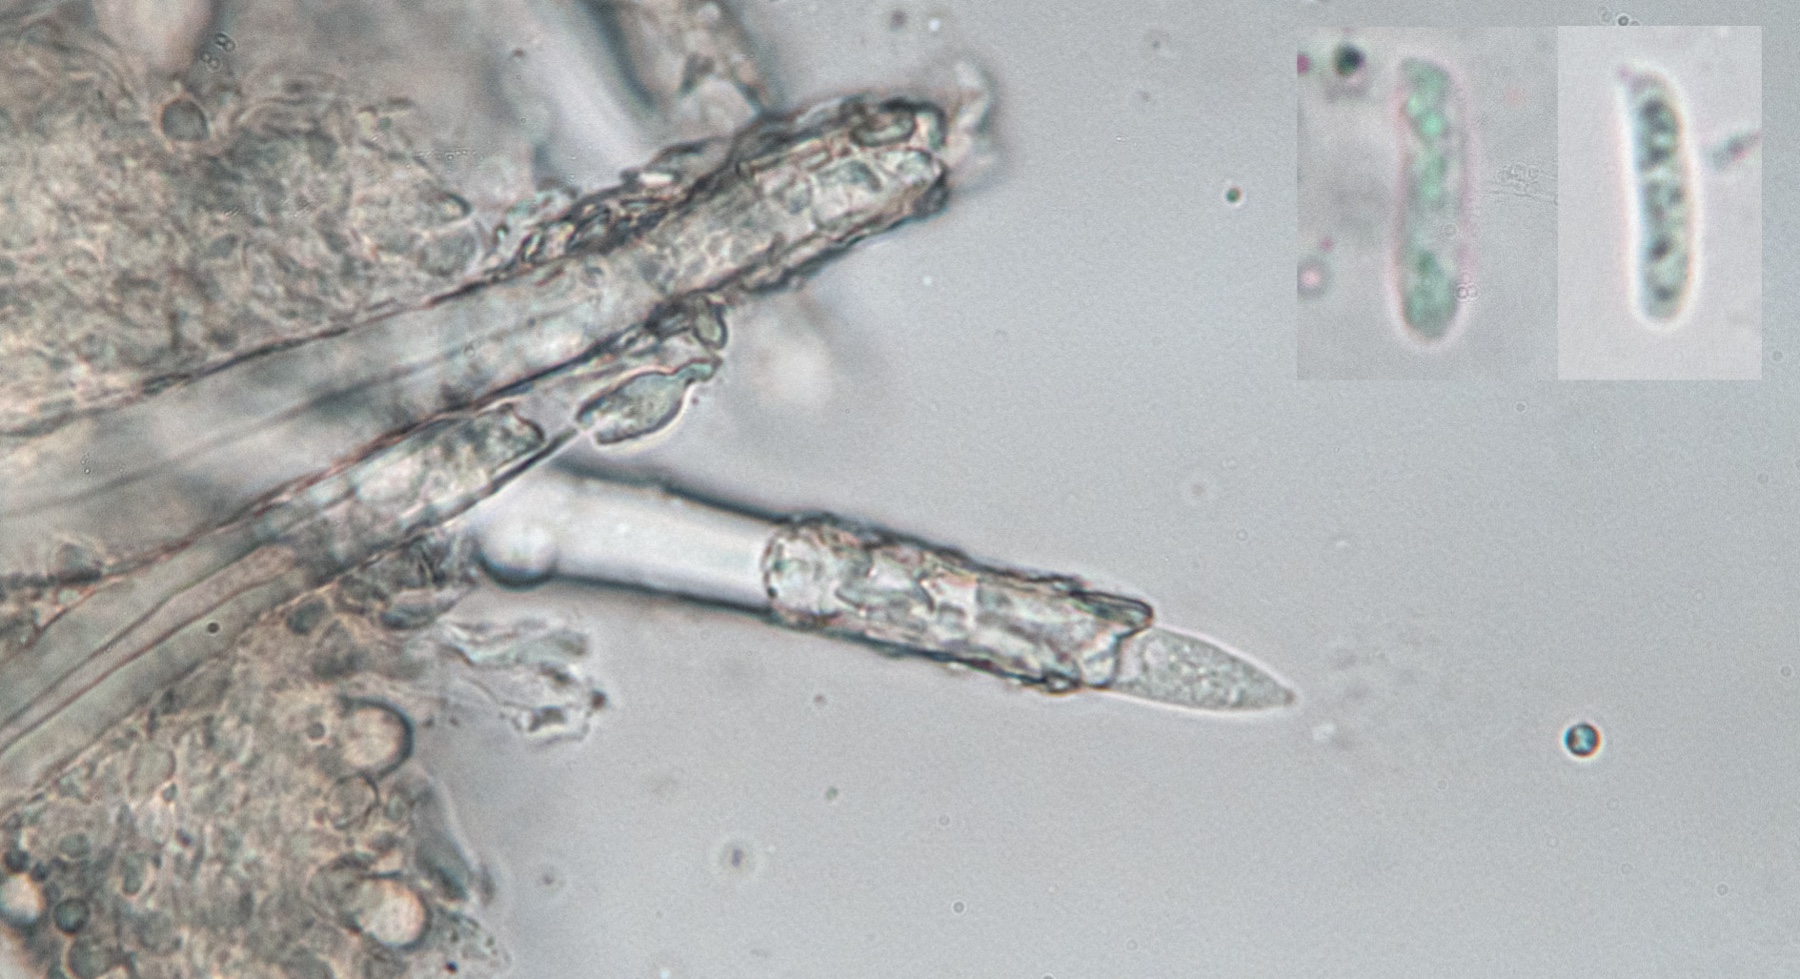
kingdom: Fungi
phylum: Basidiomycota
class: Agaricomycetes
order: Hymenochaetales
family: Hymenochaetaceae
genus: Tubulicrinis
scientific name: Tubulicrinis subulatus
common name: spids nålehinde
